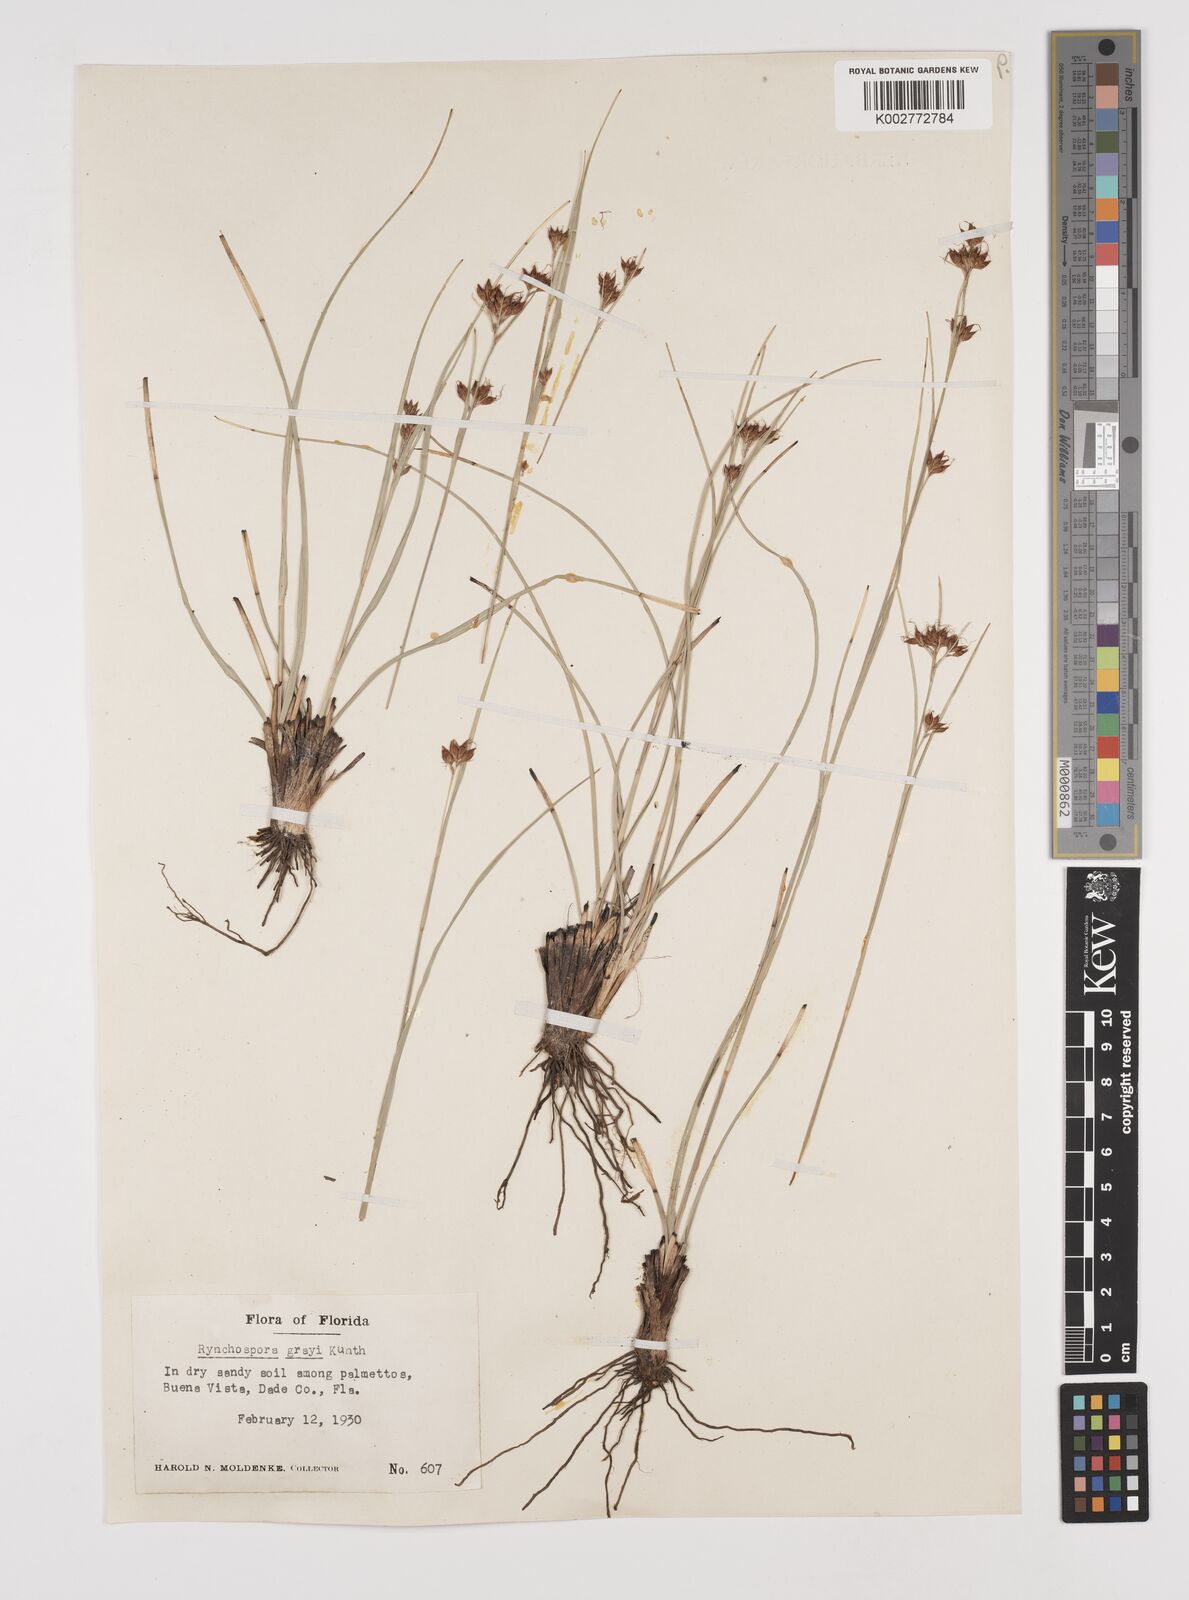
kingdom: Plantae
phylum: Tracheophyta
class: Liliopsida
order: Poales
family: Cyperaceae
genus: Rhynchospora
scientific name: Rhynchospora grayi
